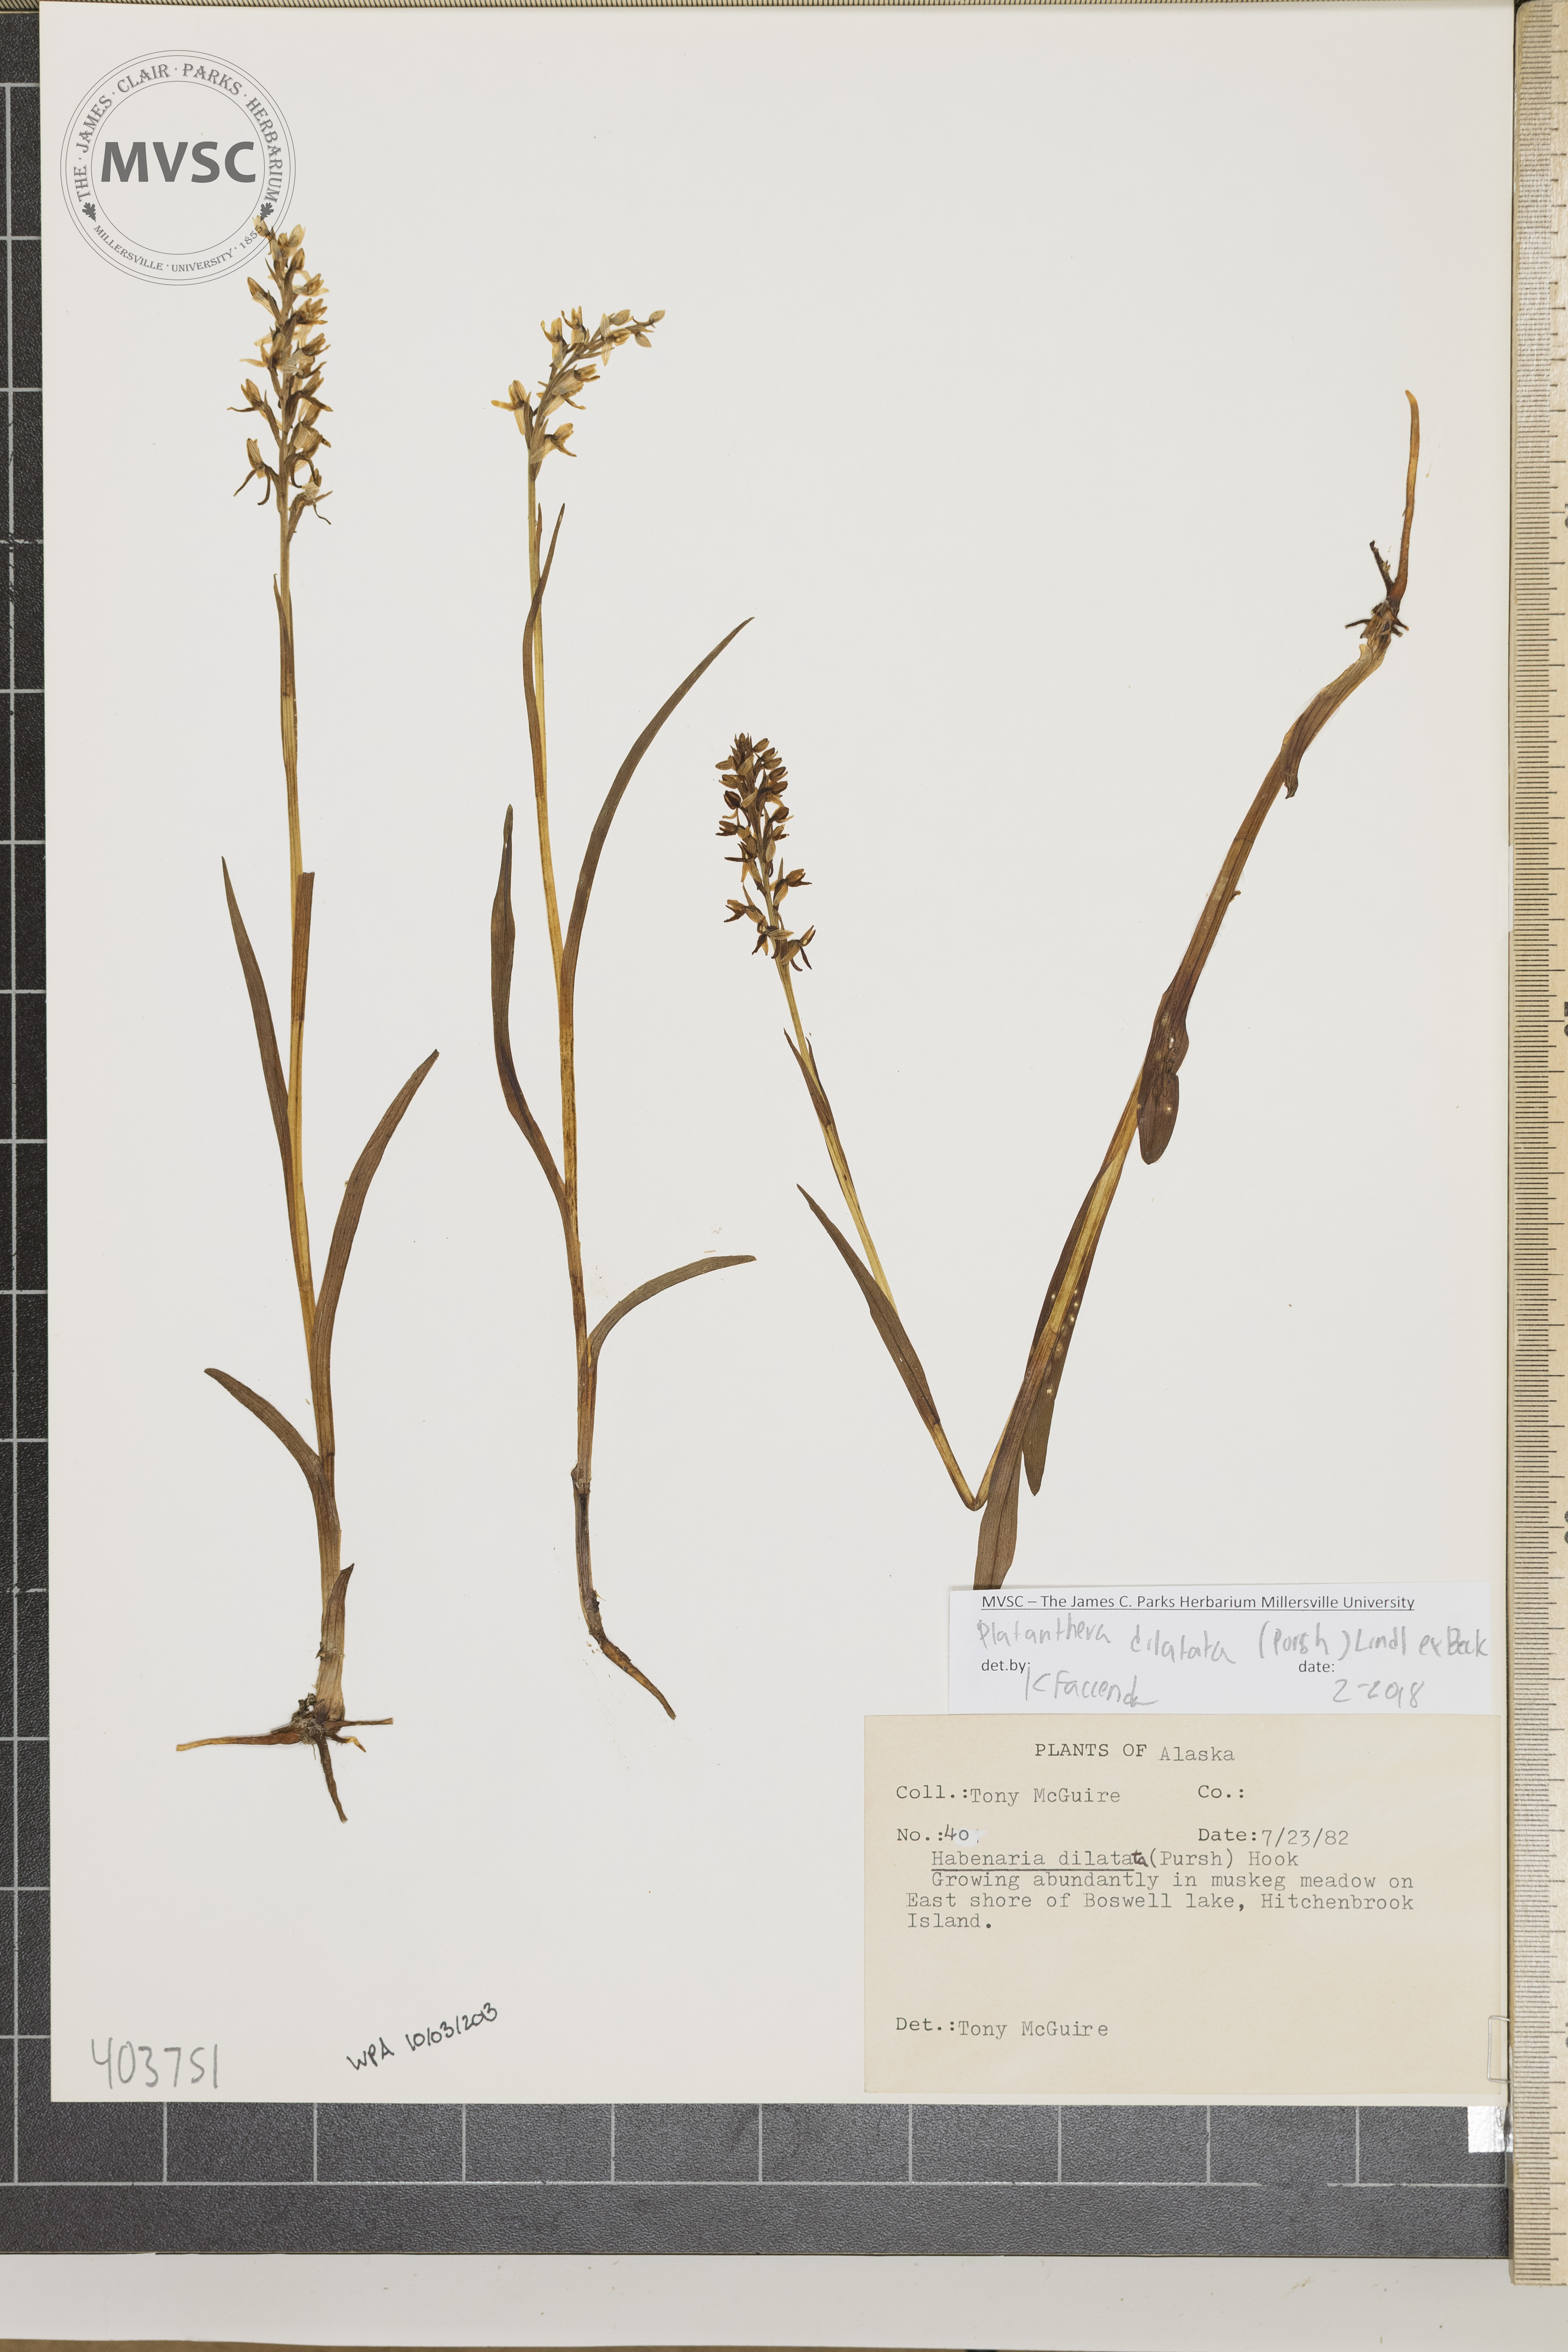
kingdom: Plantae
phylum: Tracheophyta
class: Liliopsida
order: Asparagales
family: Orchidaceae
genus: Platanthera
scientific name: Platanthera dilatata
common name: Bog candles
